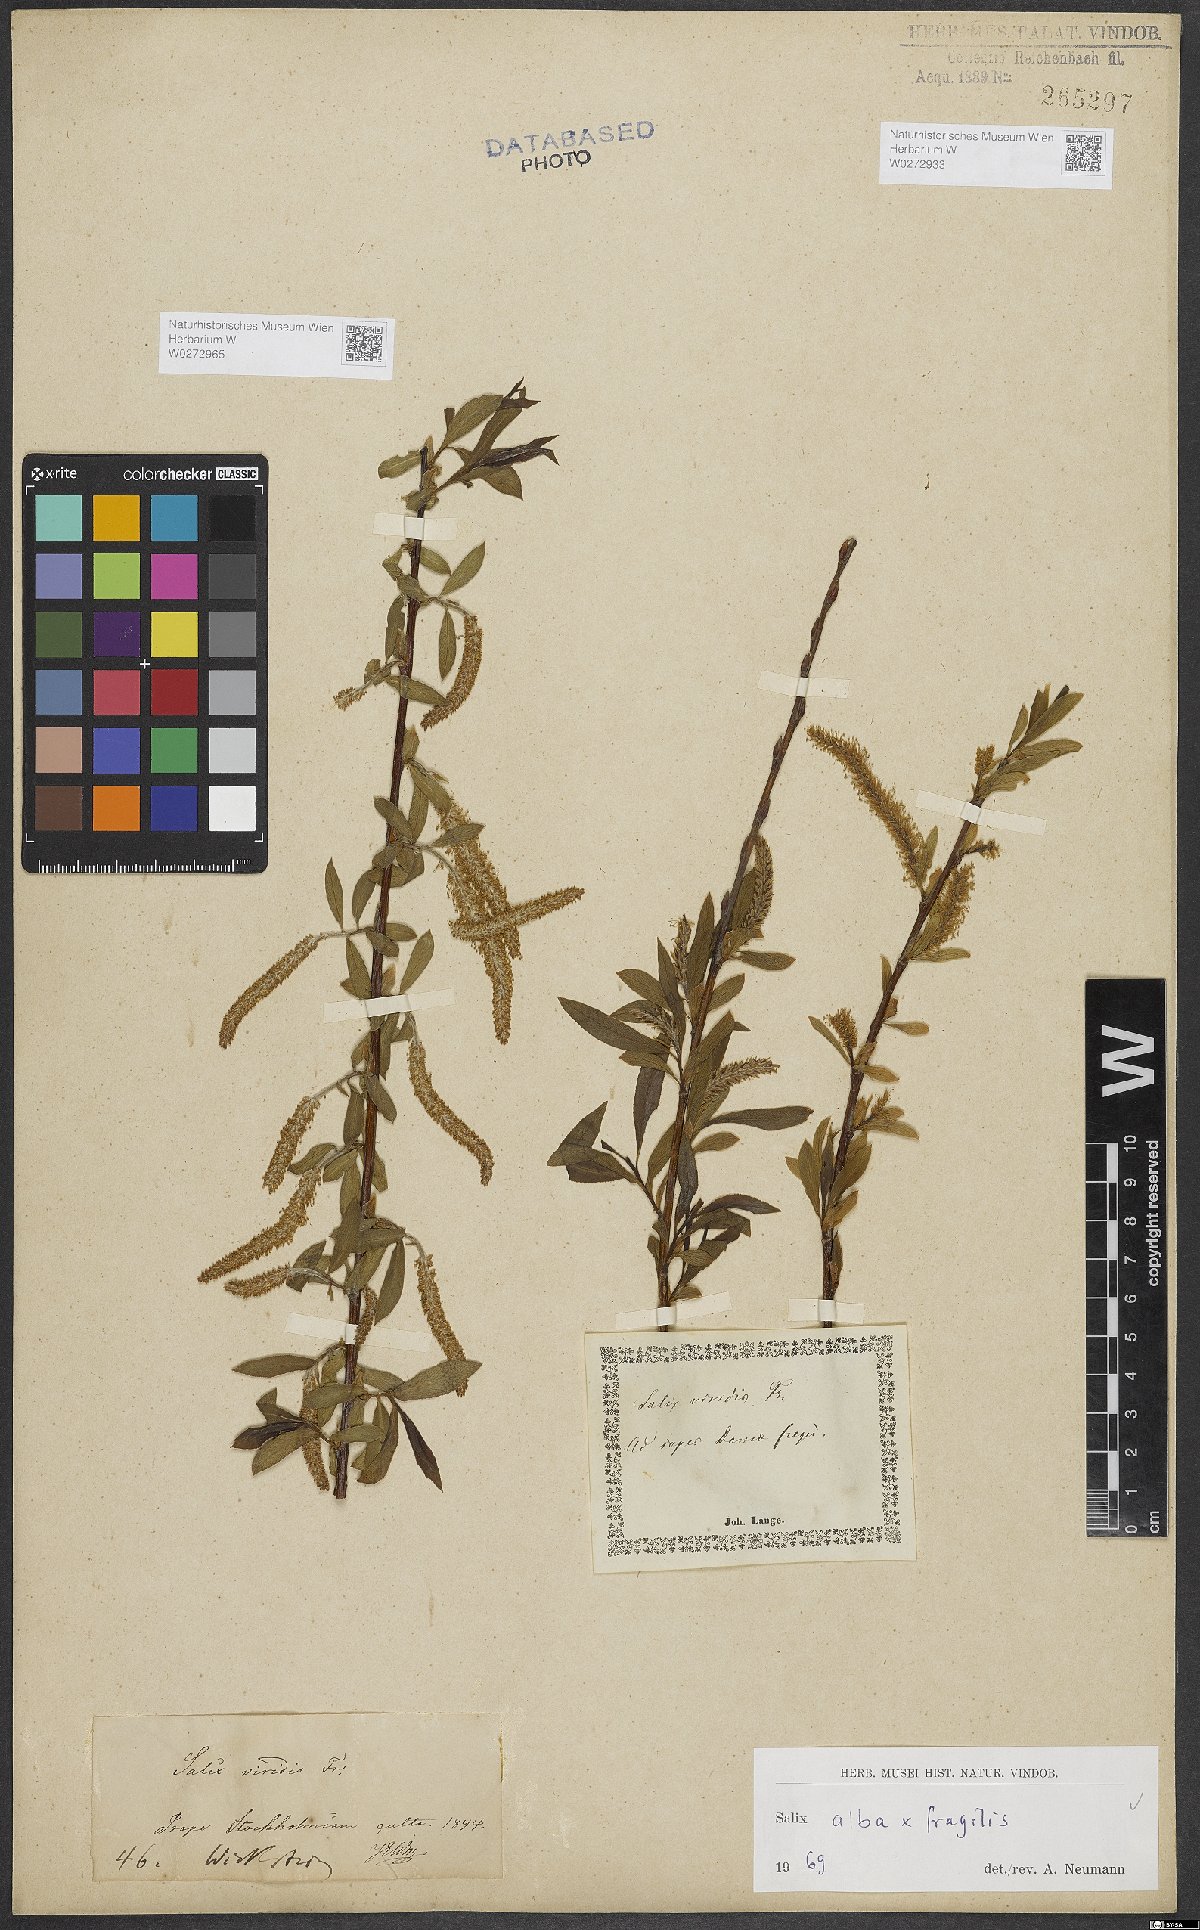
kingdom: Plantae
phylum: Tracheophyta
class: Magnoliopsida
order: Malpighiales
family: Salicaceae
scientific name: Salicaceae
